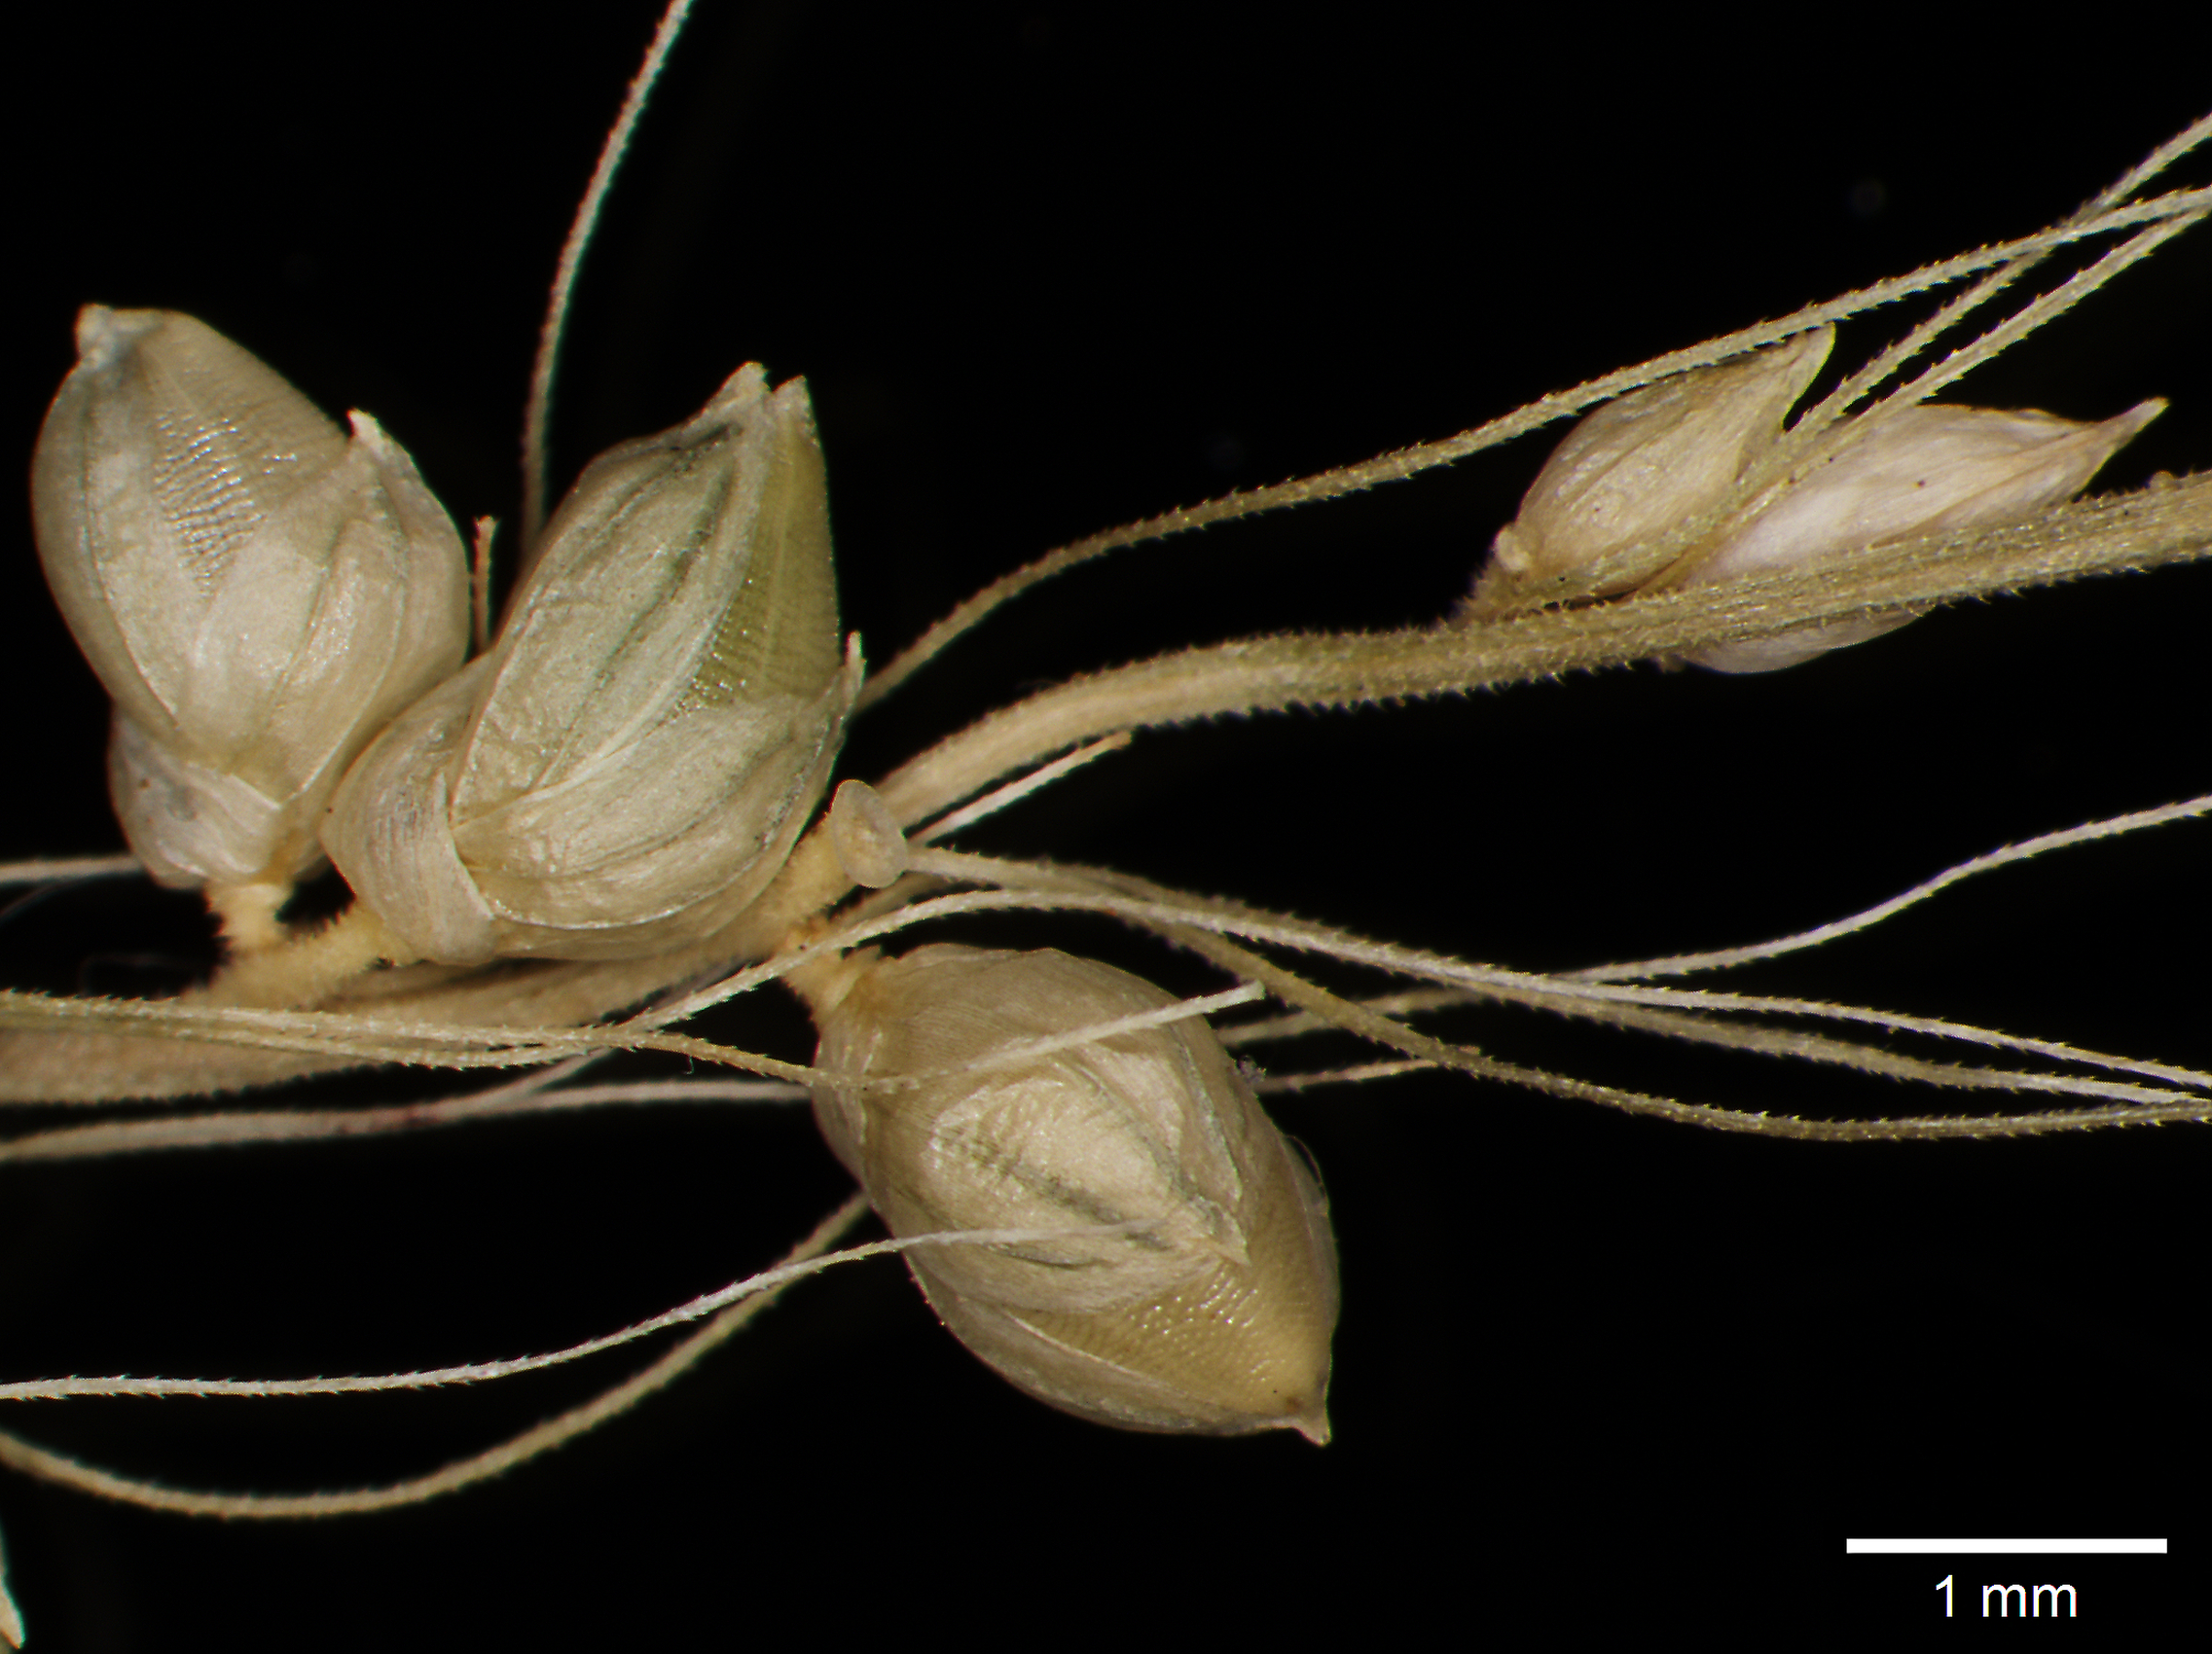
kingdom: Plantae
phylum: Tracheophyta
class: Liliopsida
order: Poales
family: Poaceae
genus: Setaria
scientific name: Setaria macrostachya
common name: Plains bristle grass
